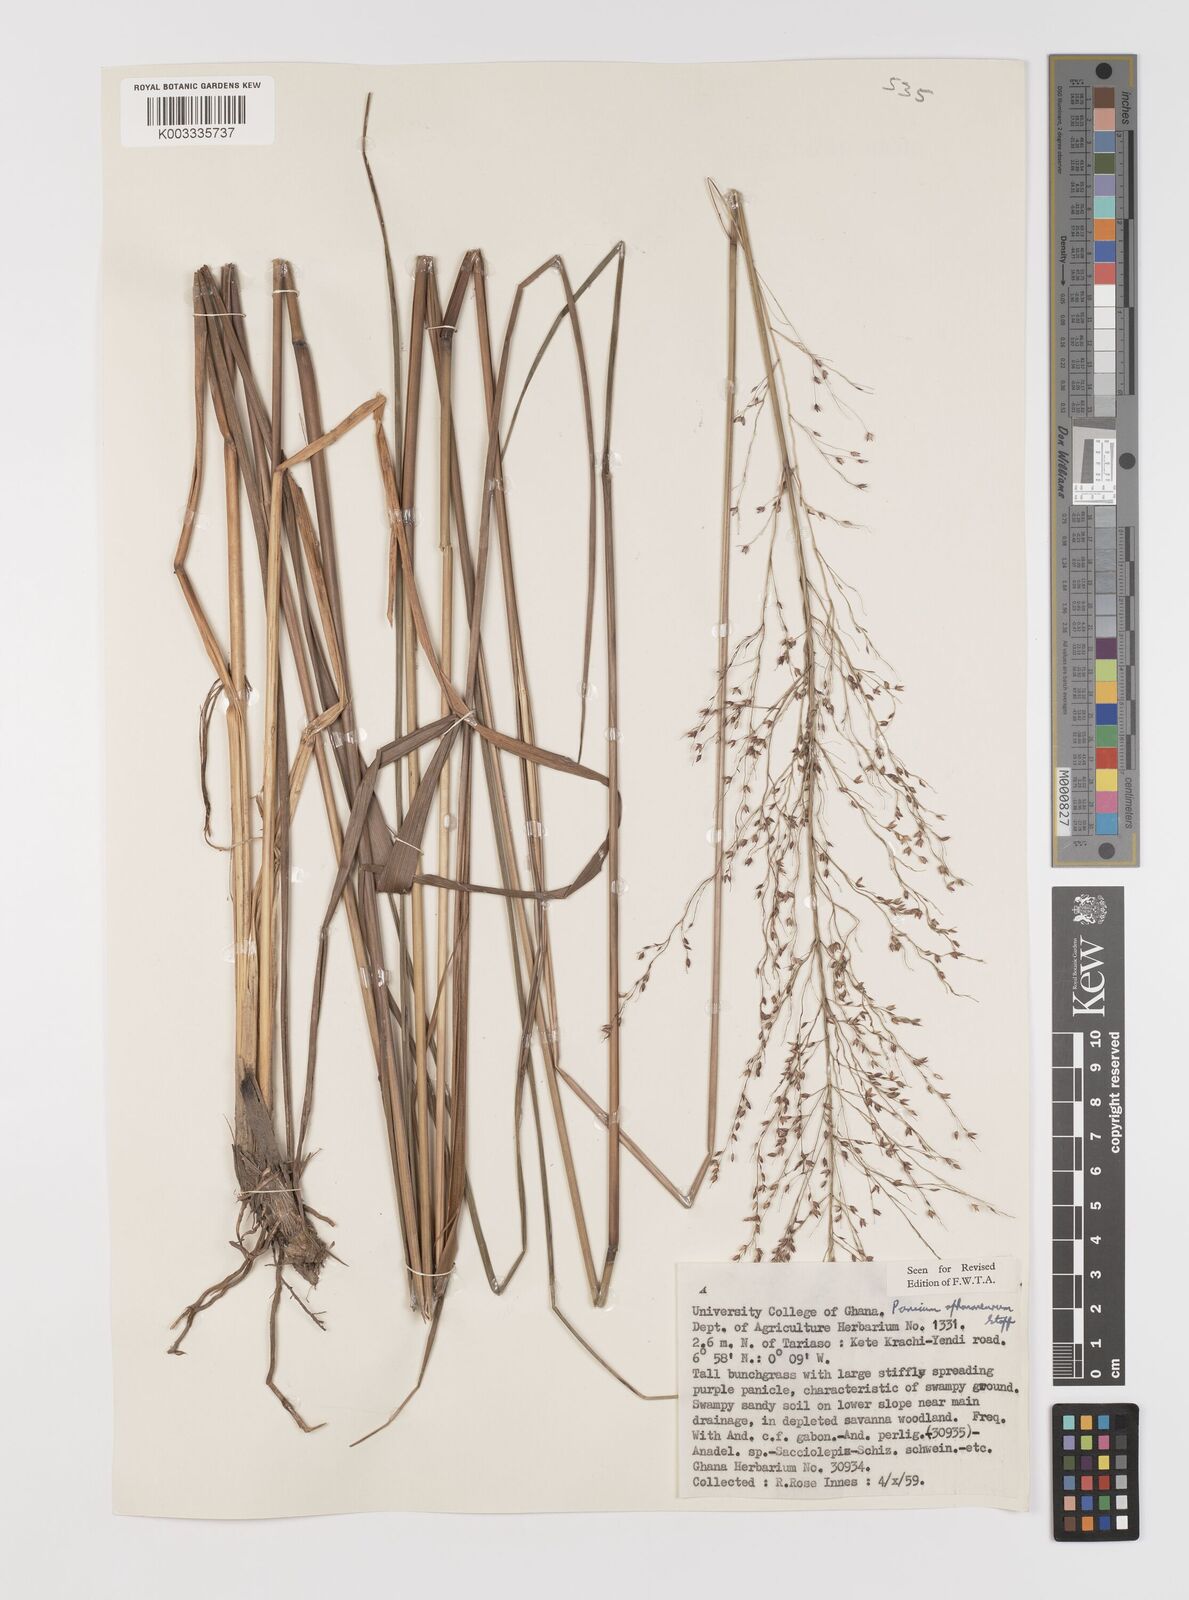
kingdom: Plantae
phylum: Tracheophyta
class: Liliopsida
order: Poales
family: Poaceae
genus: Panicum
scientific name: Panicum fluviicola
